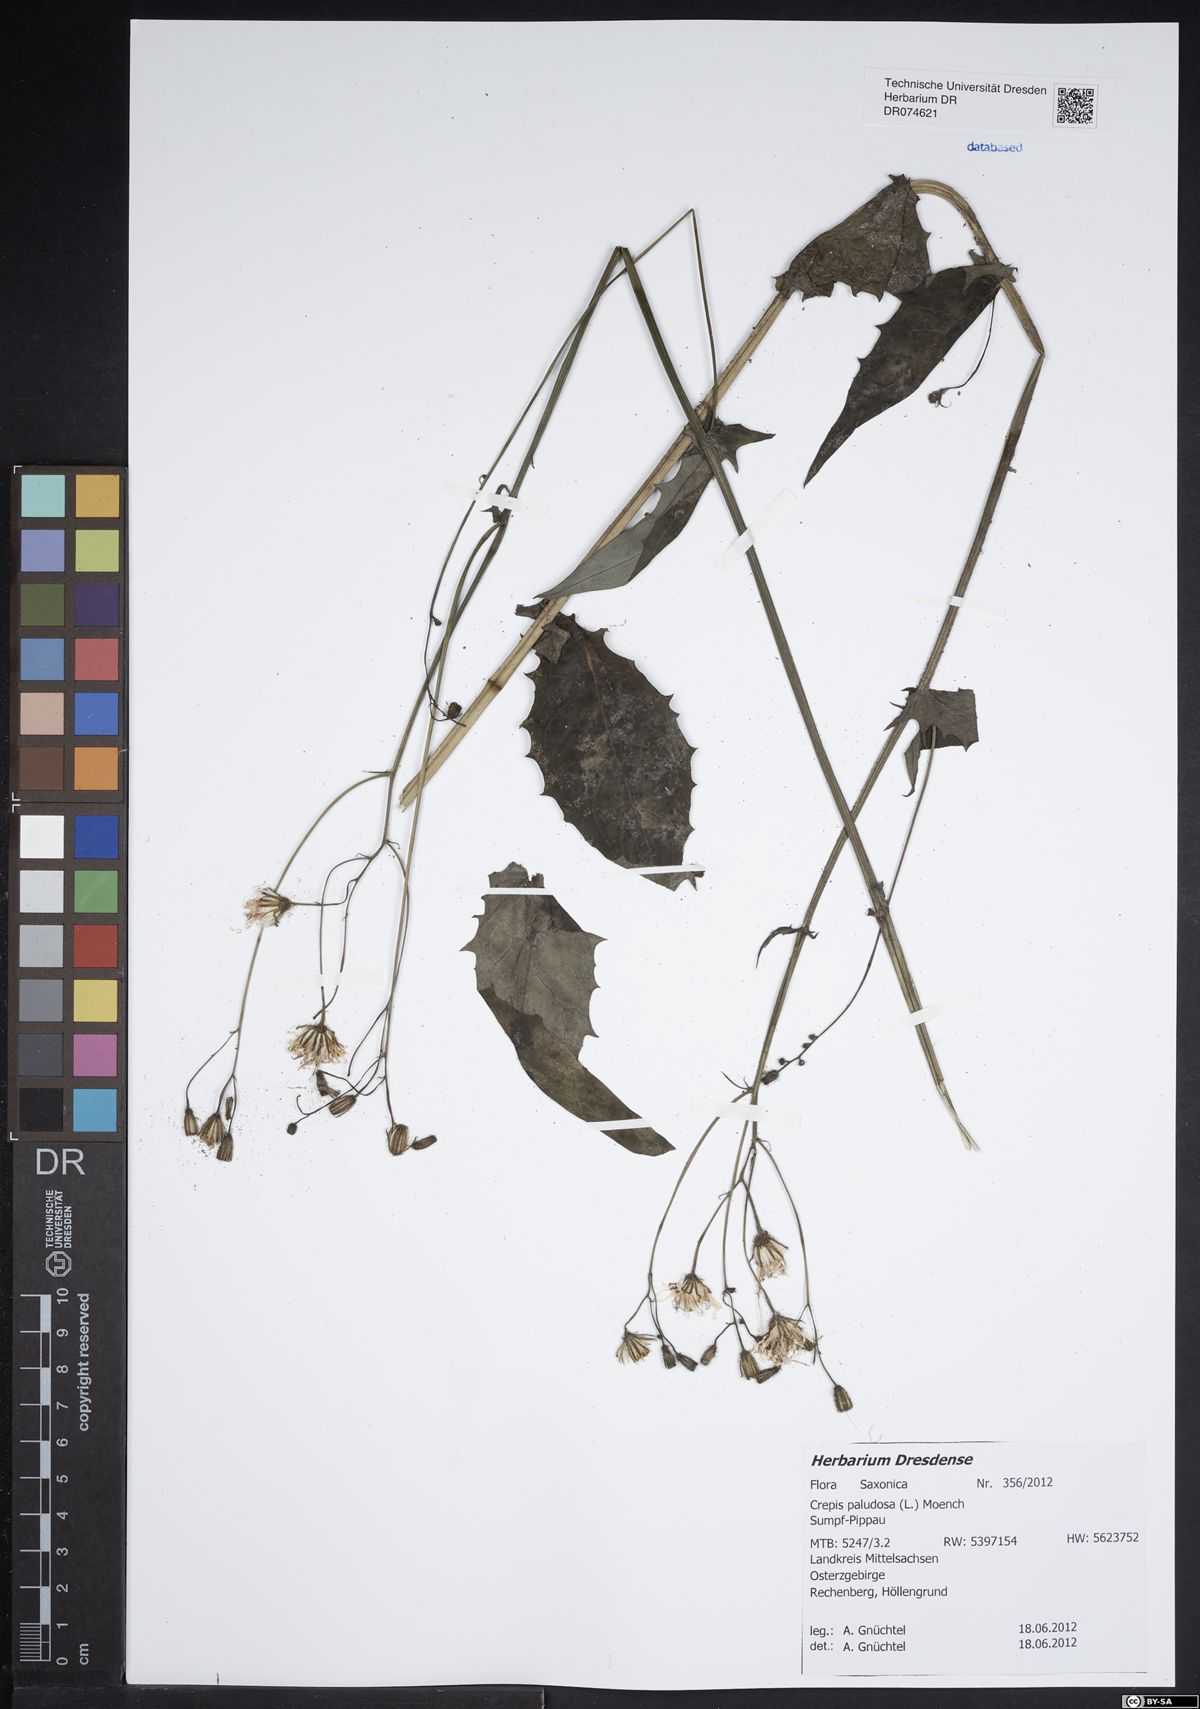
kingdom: Plantae
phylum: Tracheophyta
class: Magnoliopsida
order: Asterales
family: Asteraceae
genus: Crepis
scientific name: Crepis paludosa
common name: Marsh hawk's-beard
